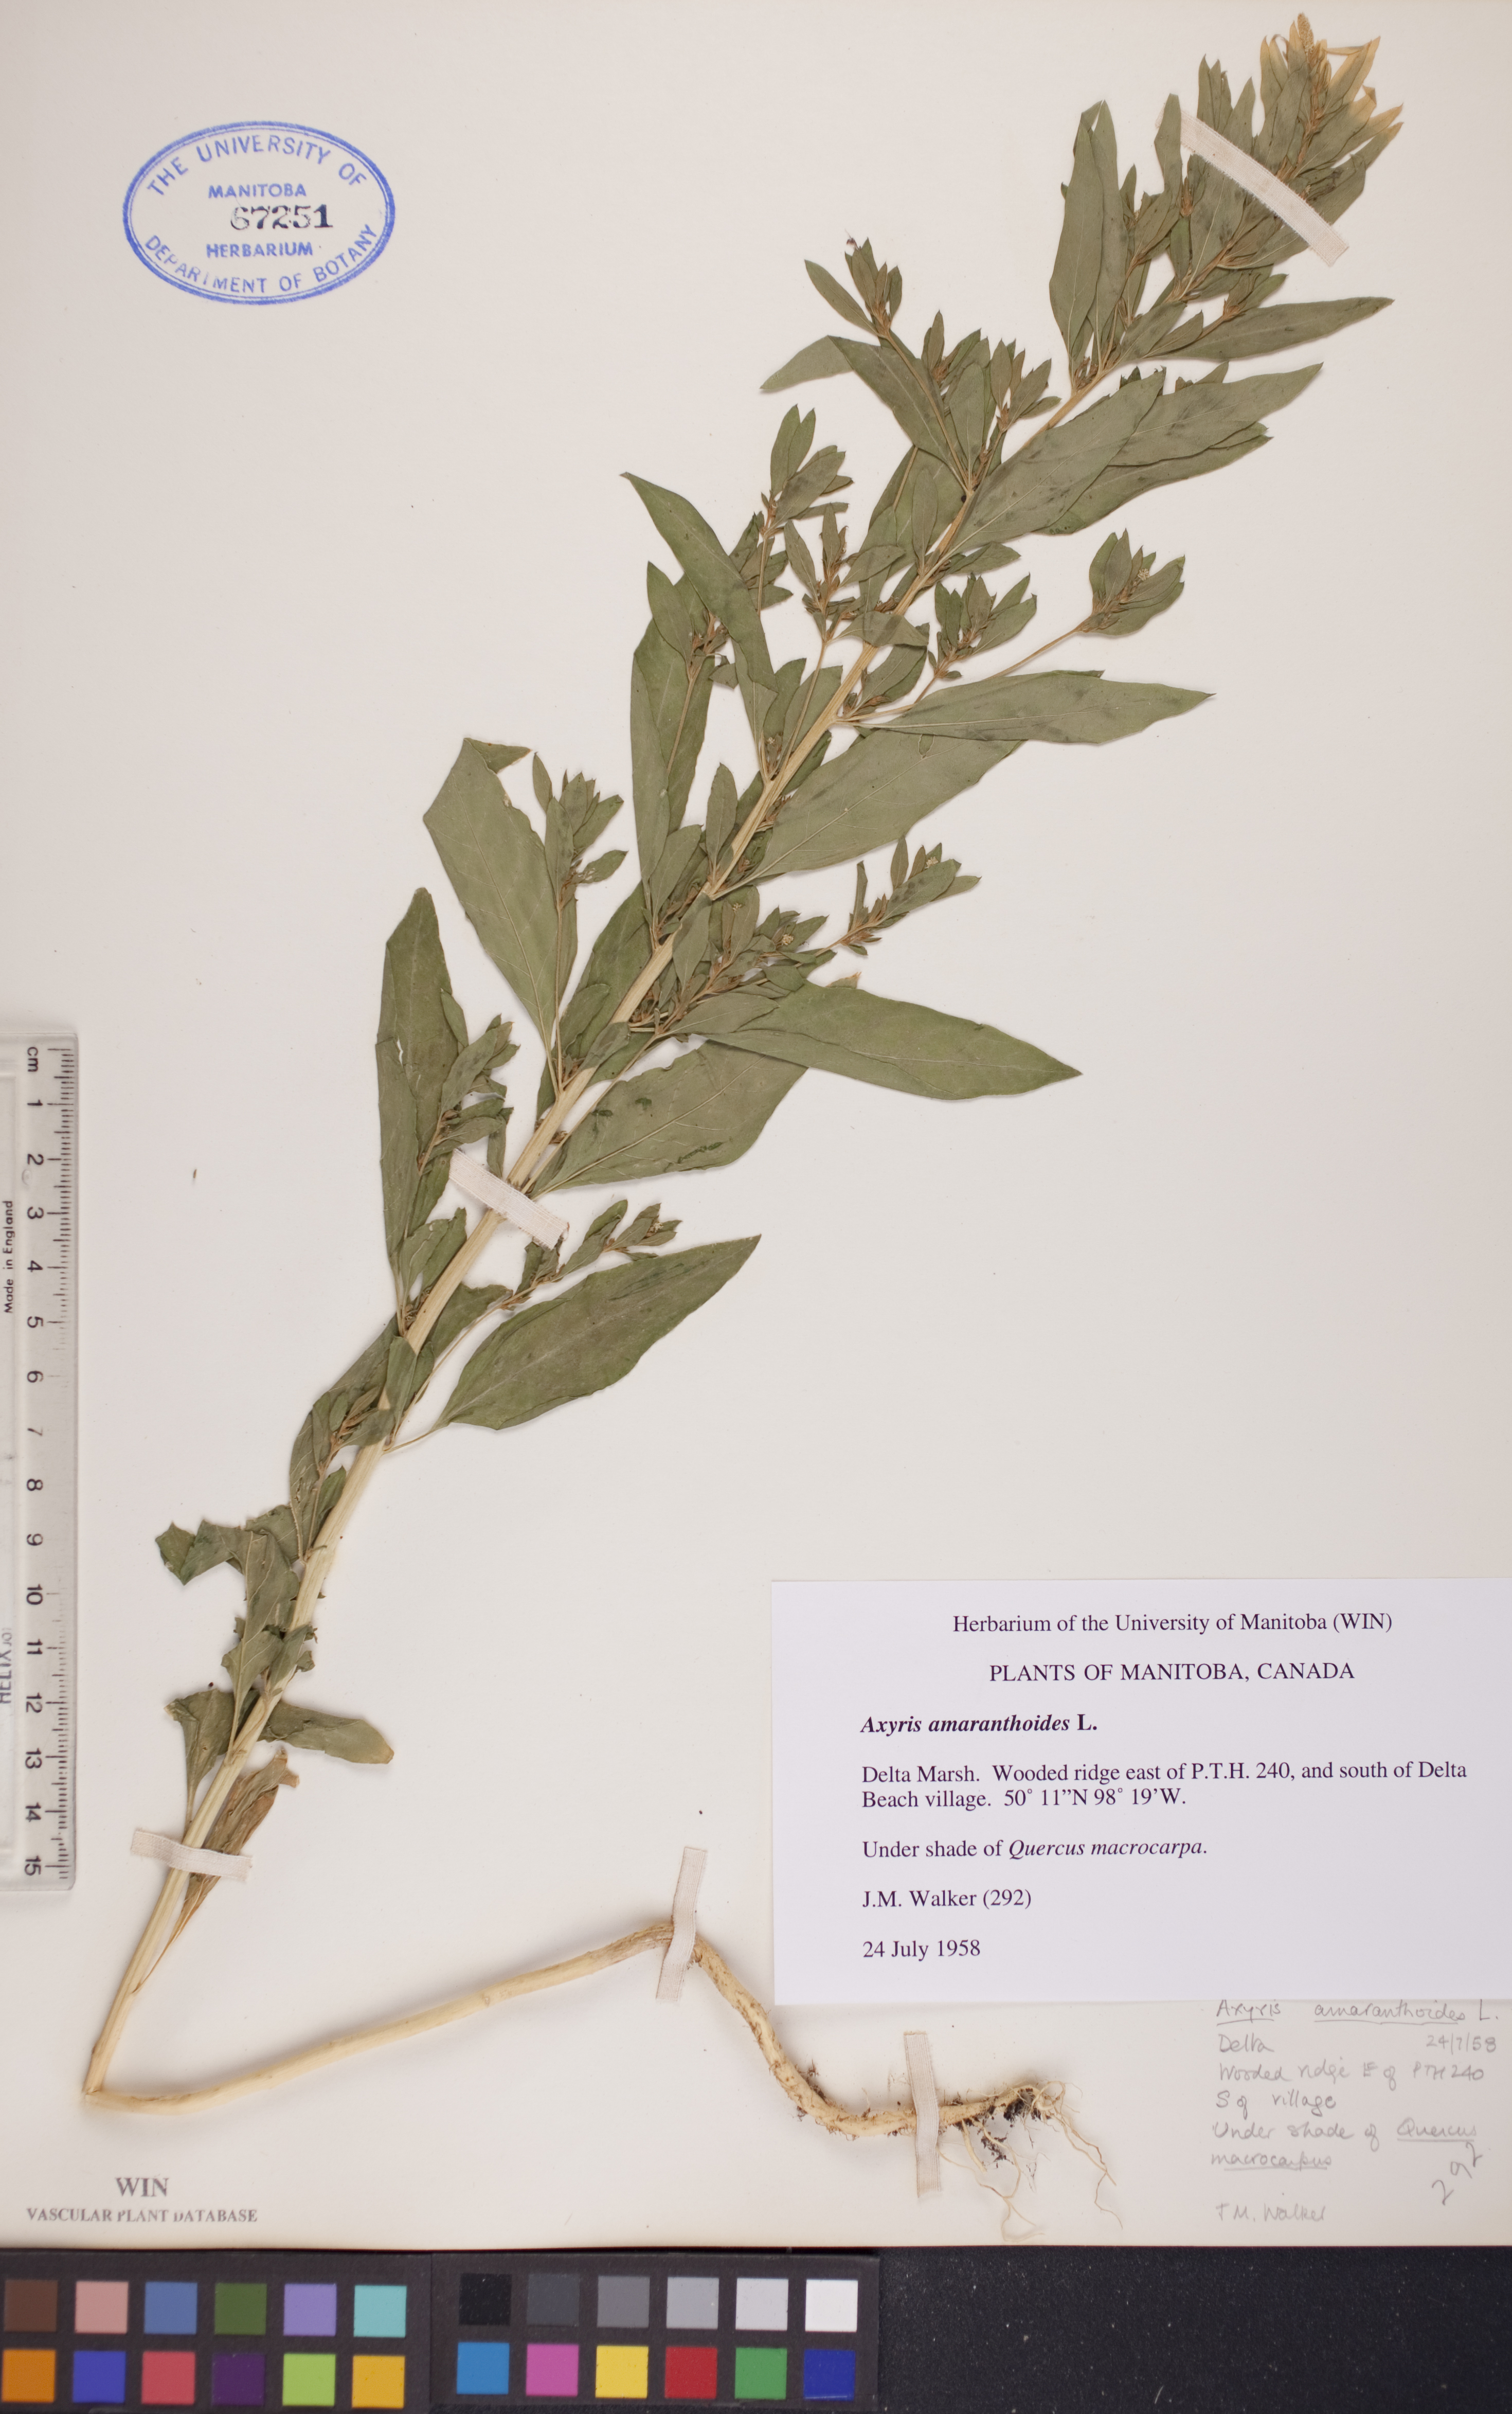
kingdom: Plantae
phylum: Tracheophyta
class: Magnoliopsida
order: Caryophyllales
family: Amaranthaceae
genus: Axyris
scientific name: Axyris amaranthoides
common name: Russian pigweed
